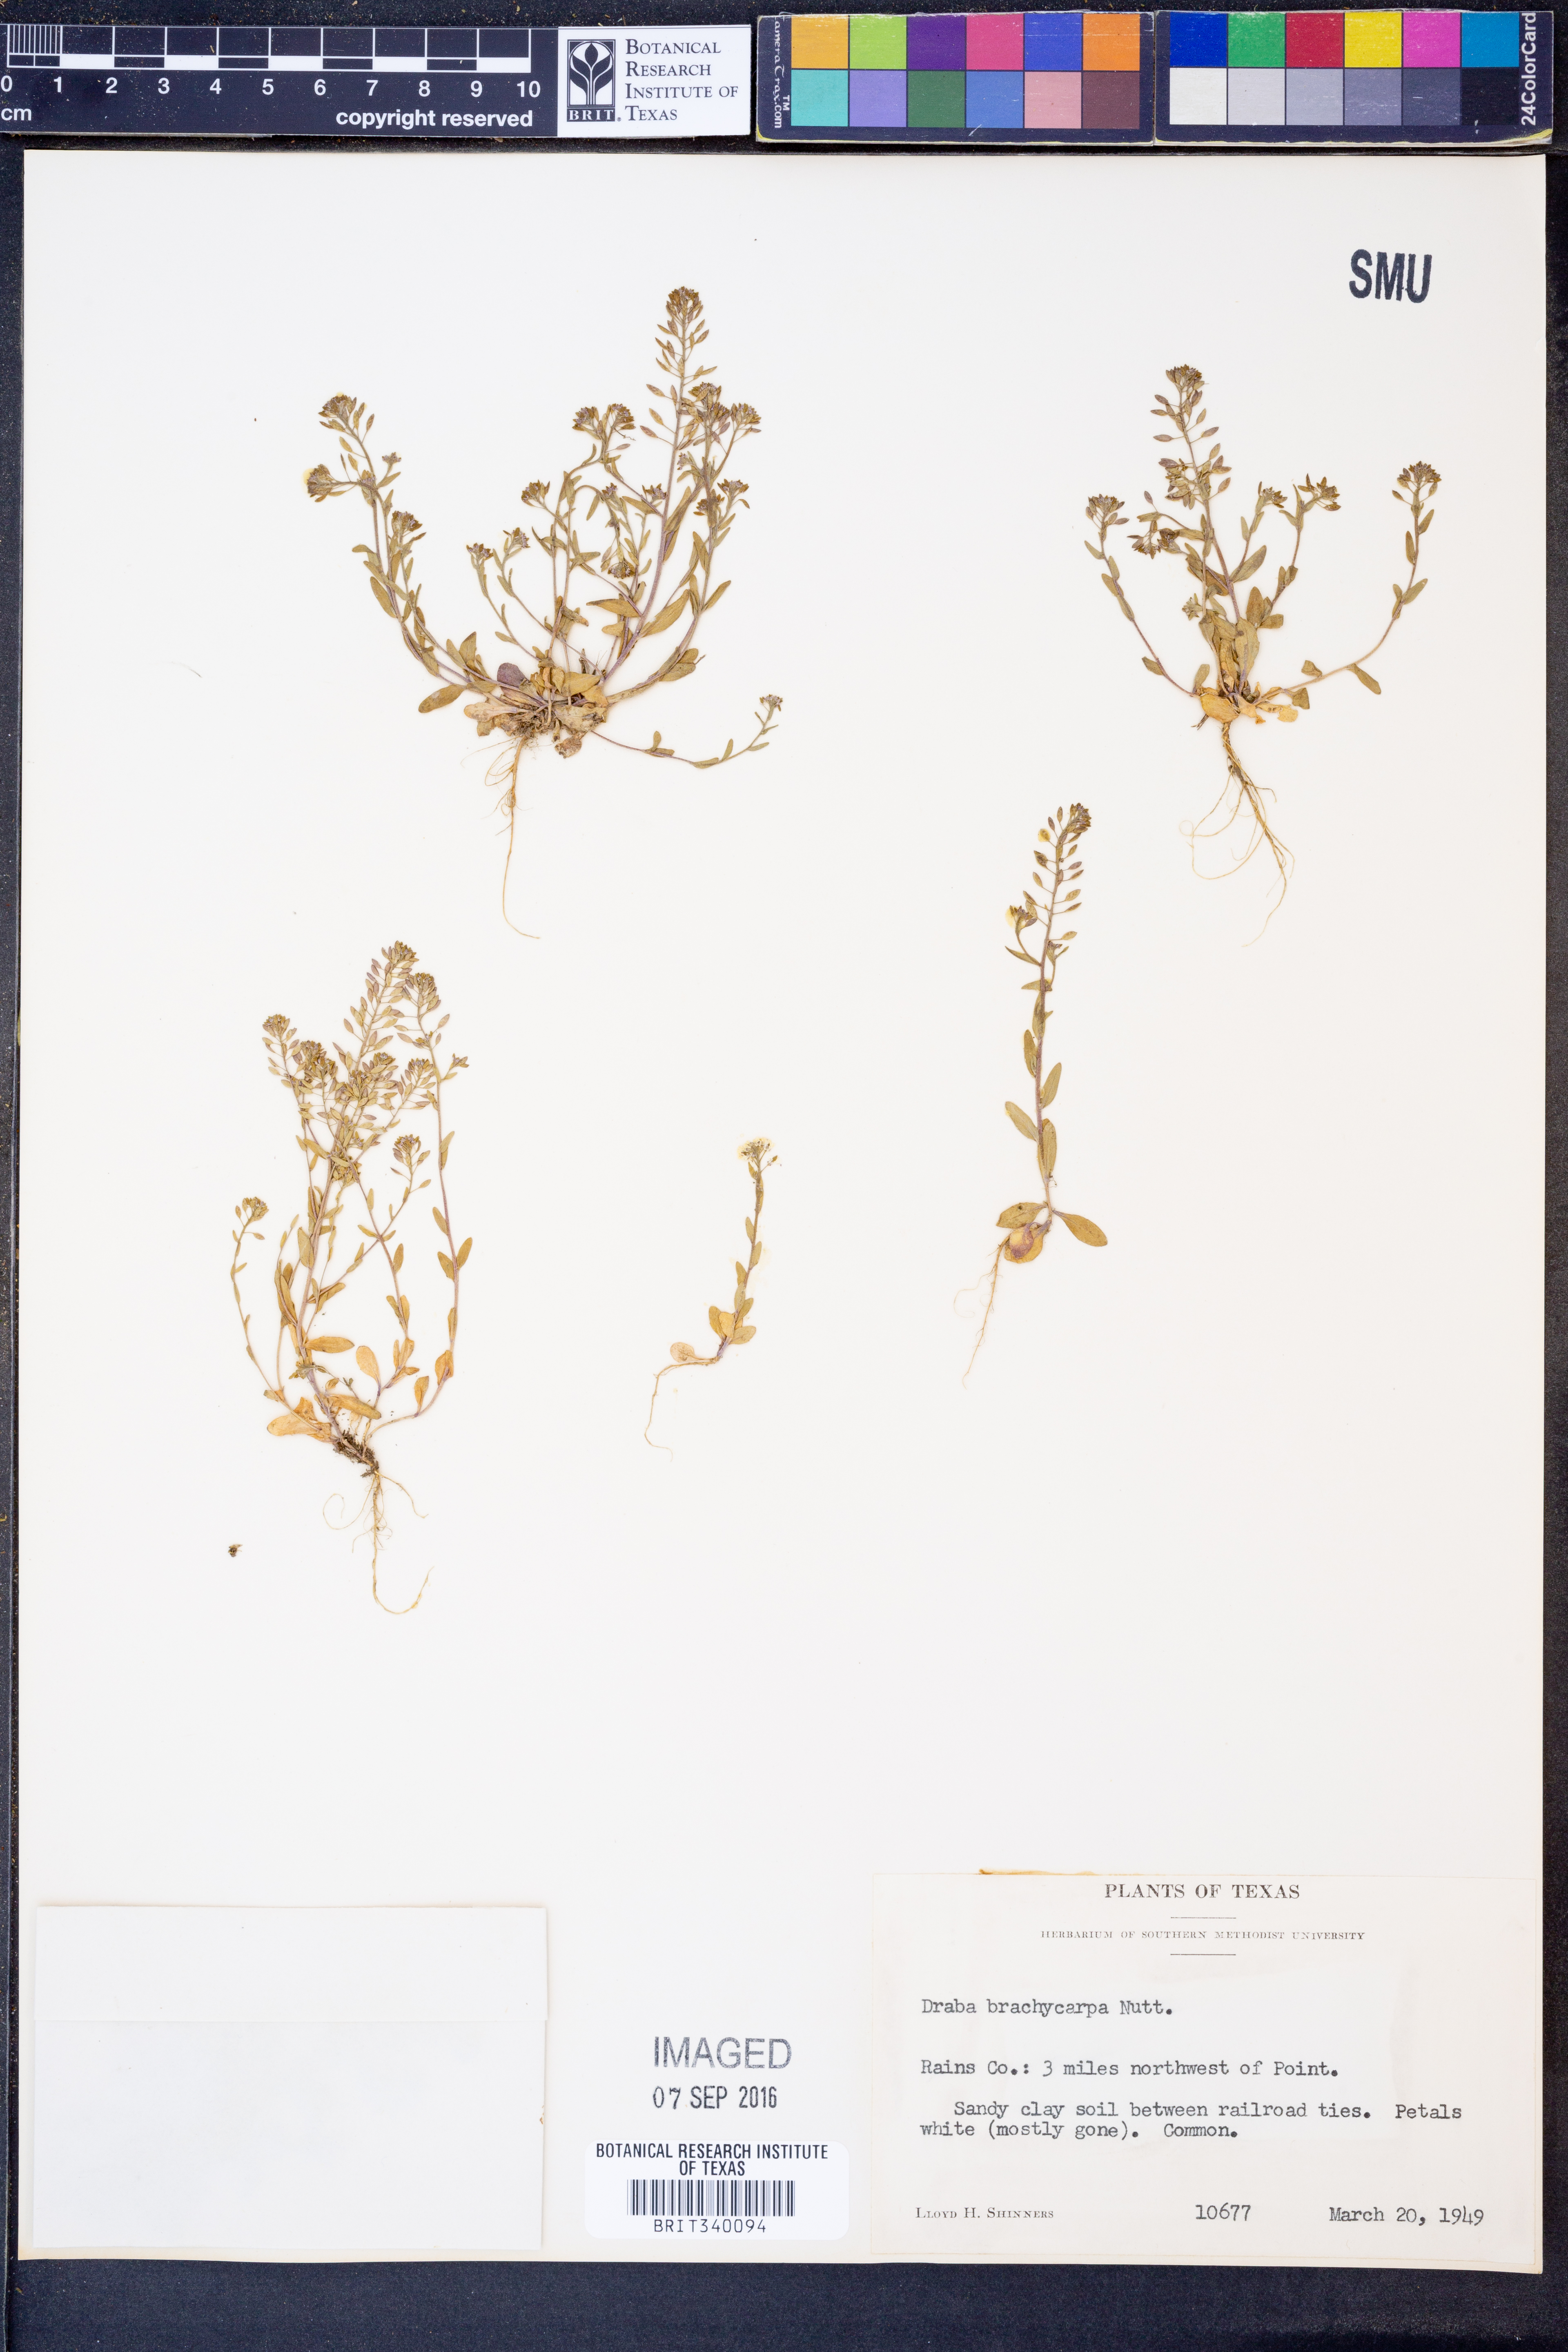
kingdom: Plantae
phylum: Tracheophyta
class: Magnoliopsida
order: Brassicales
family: Brassicaceae
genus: Abdra
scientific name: Abdra brachycarpa
